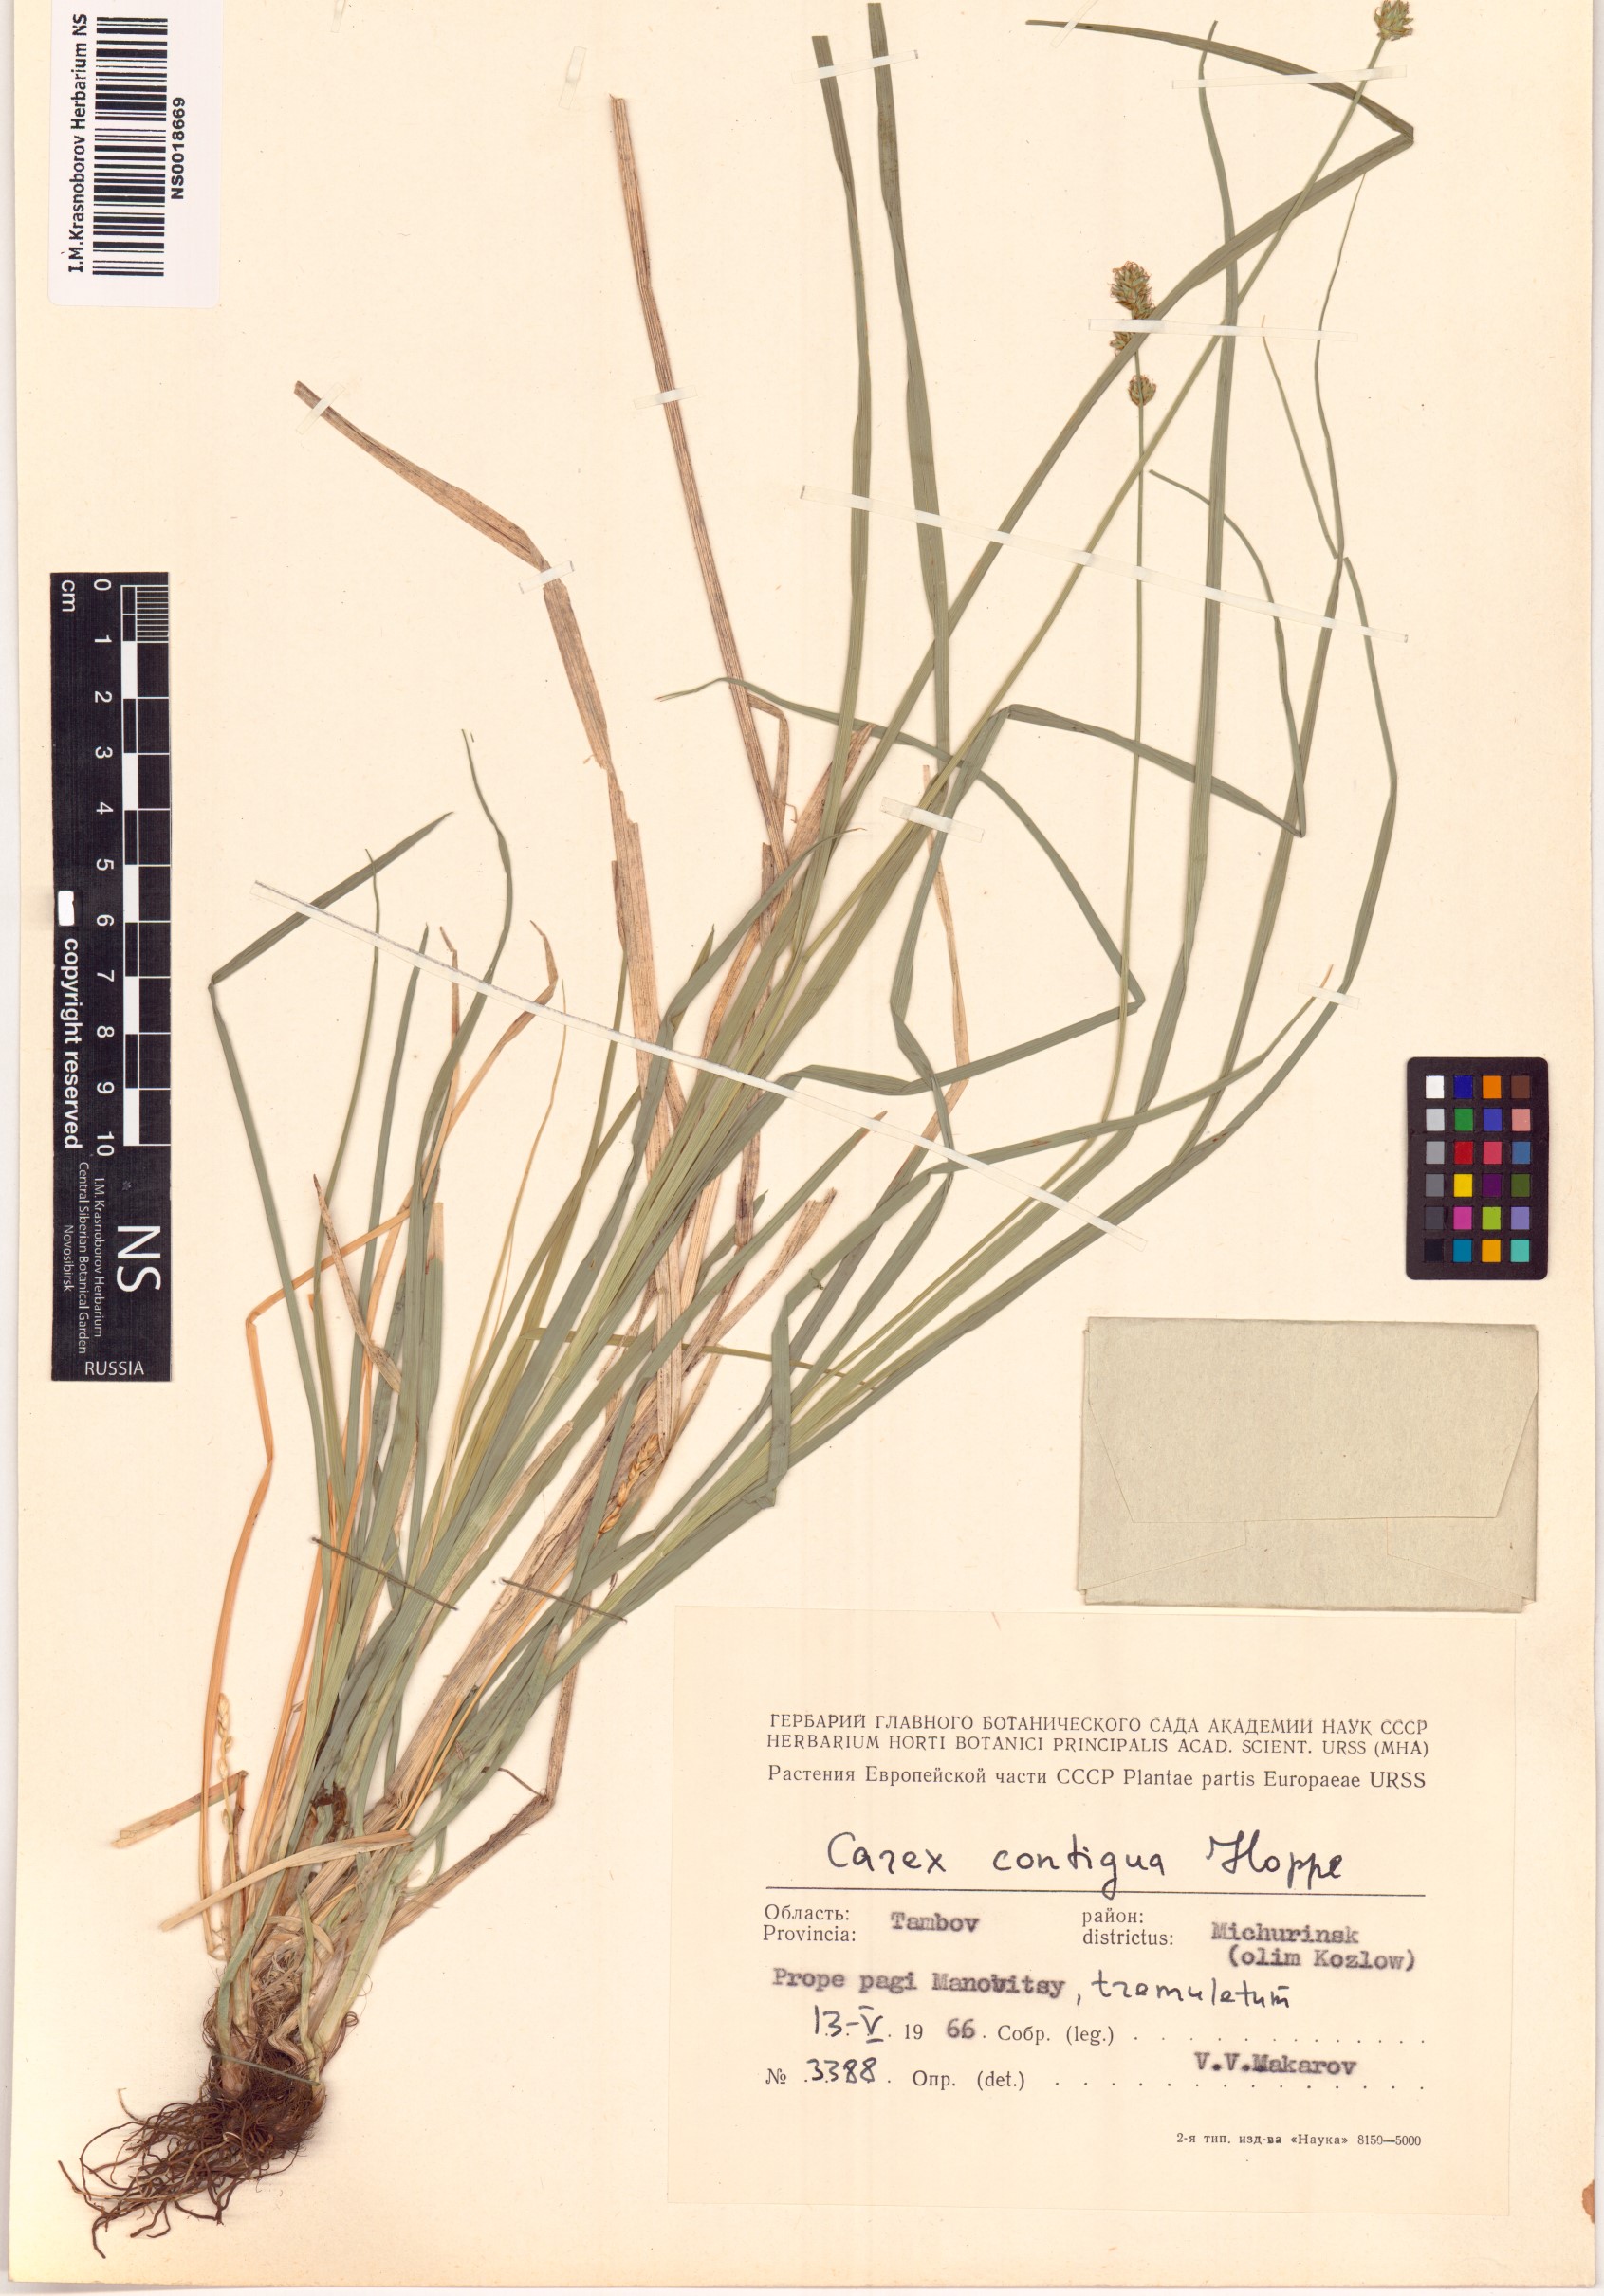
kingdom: Plantae
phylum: Tracheophyta
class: Liliopsida
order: Poales
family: Cyperaceae
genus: Carex
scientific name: Carex spicata
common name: Spiked sedge
